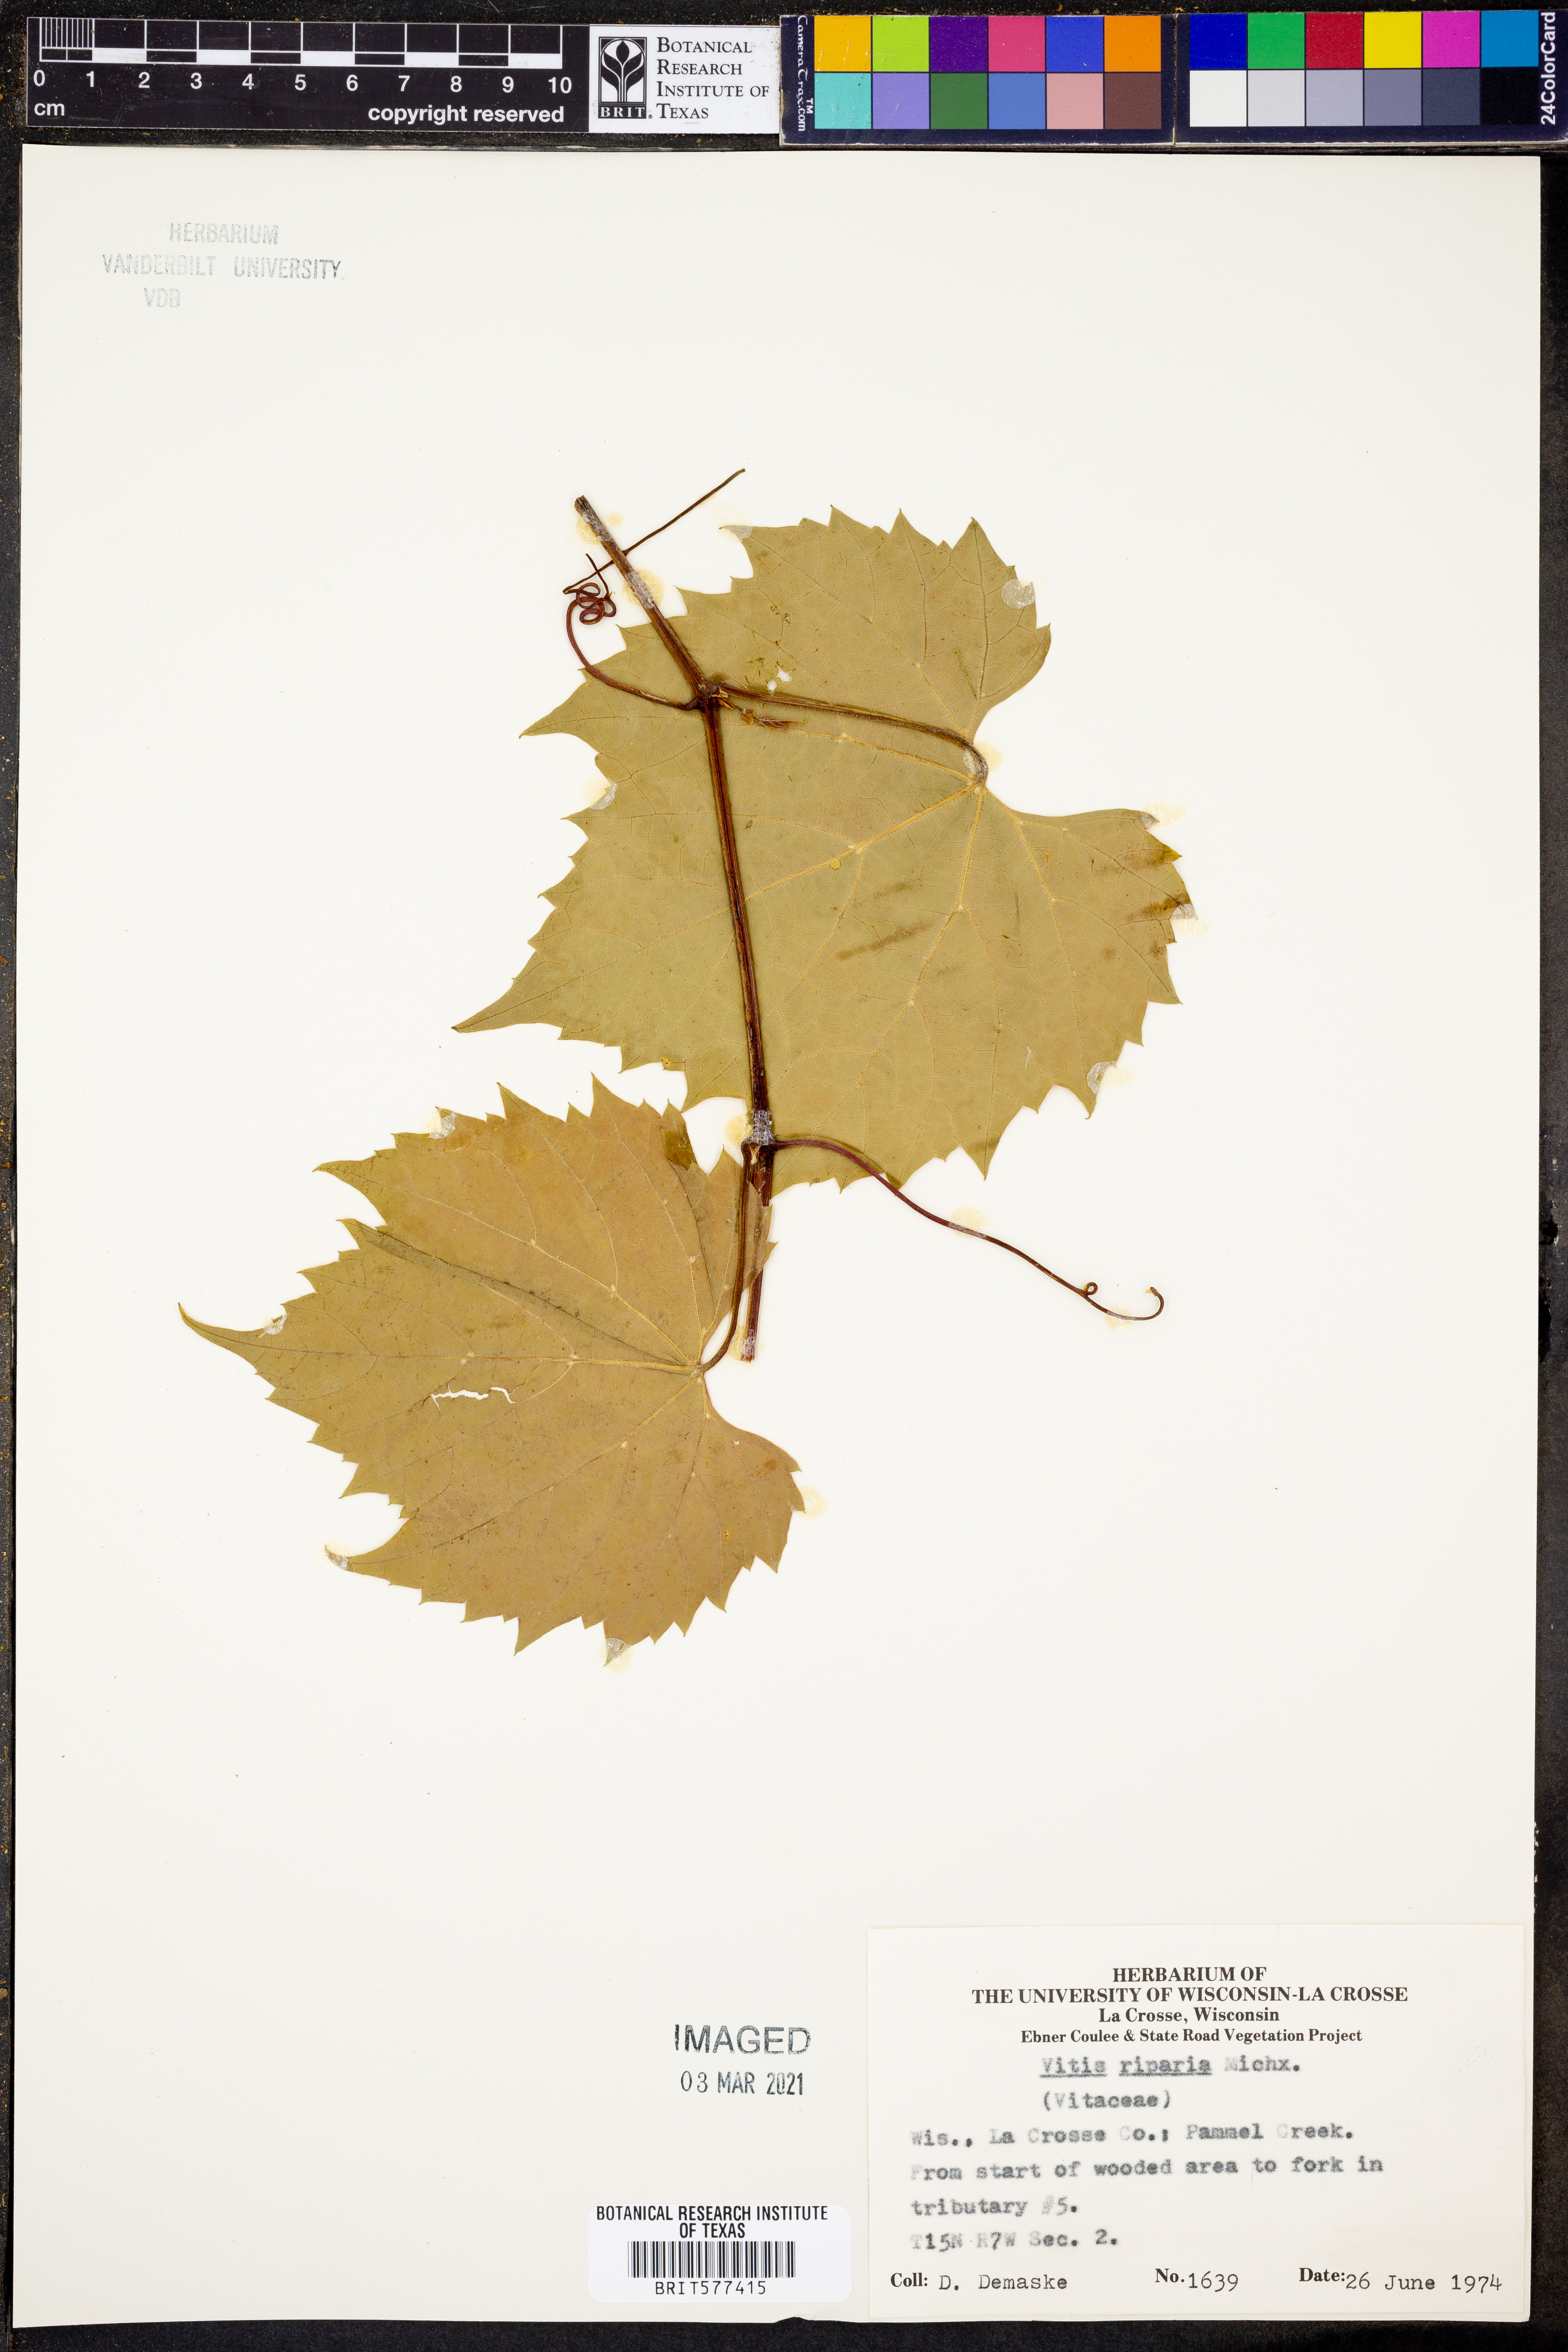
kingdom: Plantae
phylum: Tracheophyta
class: Magnoliopsida
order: Vitales
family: Vitaceae
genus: Vitis
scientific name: Vitis riparia
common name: Frost grape
